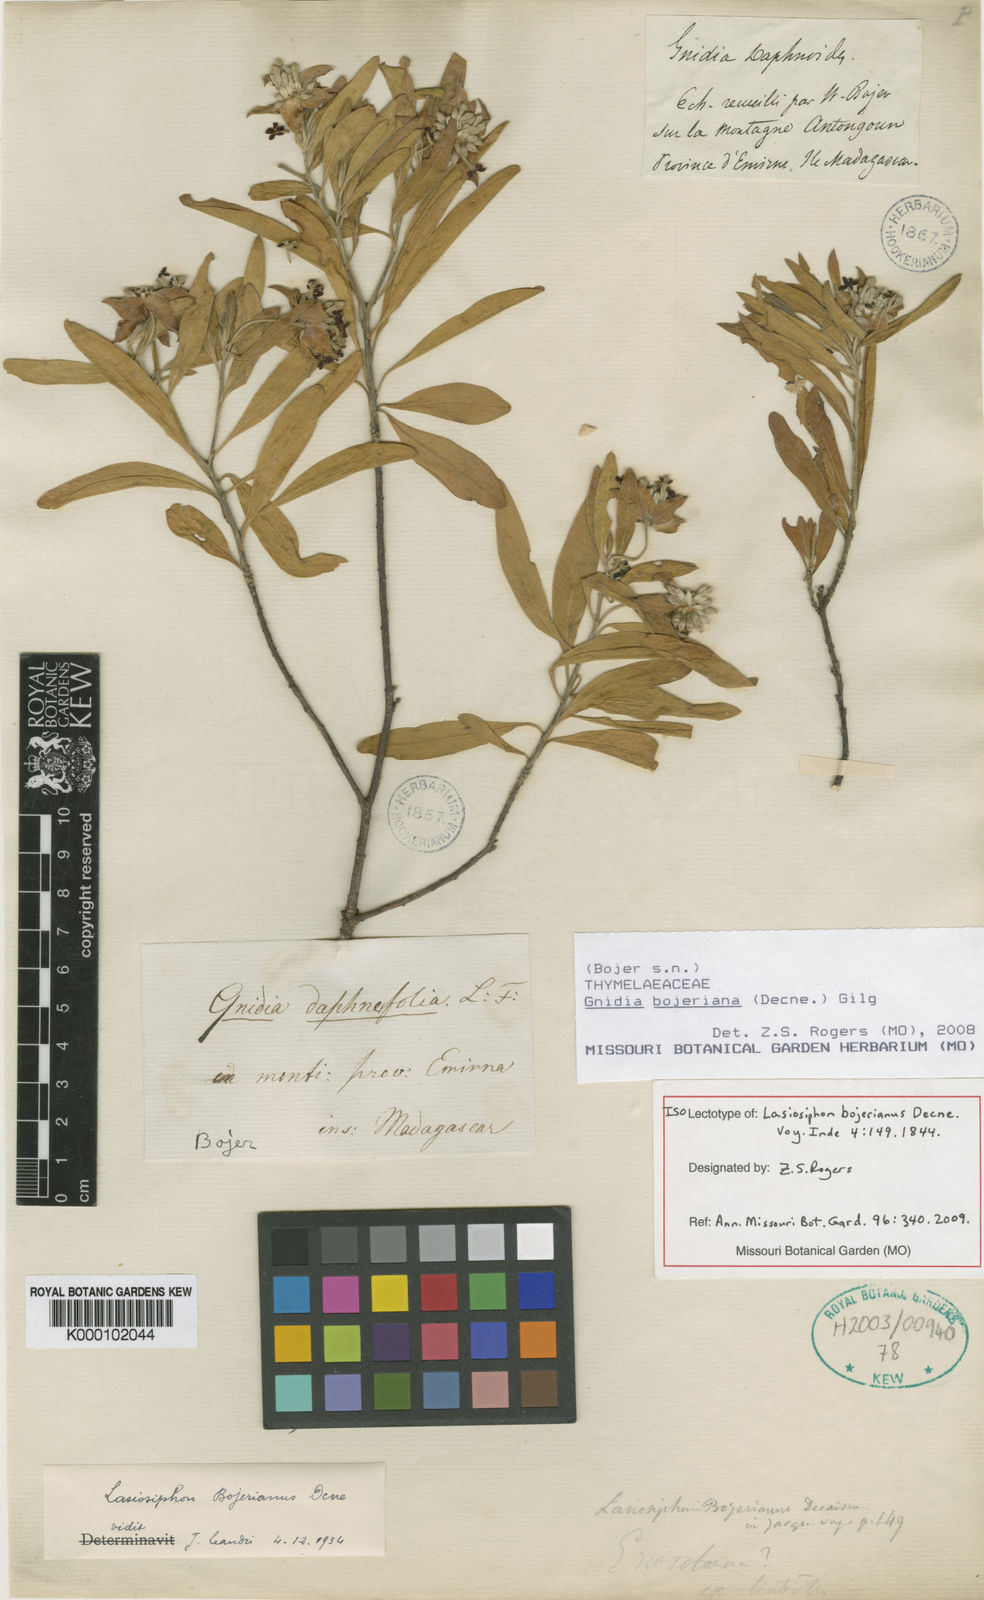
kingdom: Plantae
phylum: Tracheophyta
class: Magnoliopsida
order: Malvales
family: Thymelaeaceae
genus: Gnidia
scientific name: Gnidia bojeriana
